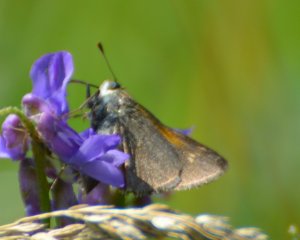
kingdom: Animalia
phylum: Arthropoda
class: Insecta
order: Lepidoptera
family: Hesperiidae
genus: Polites
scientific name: Polites themistocles
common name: Tawny-edged Skipper
